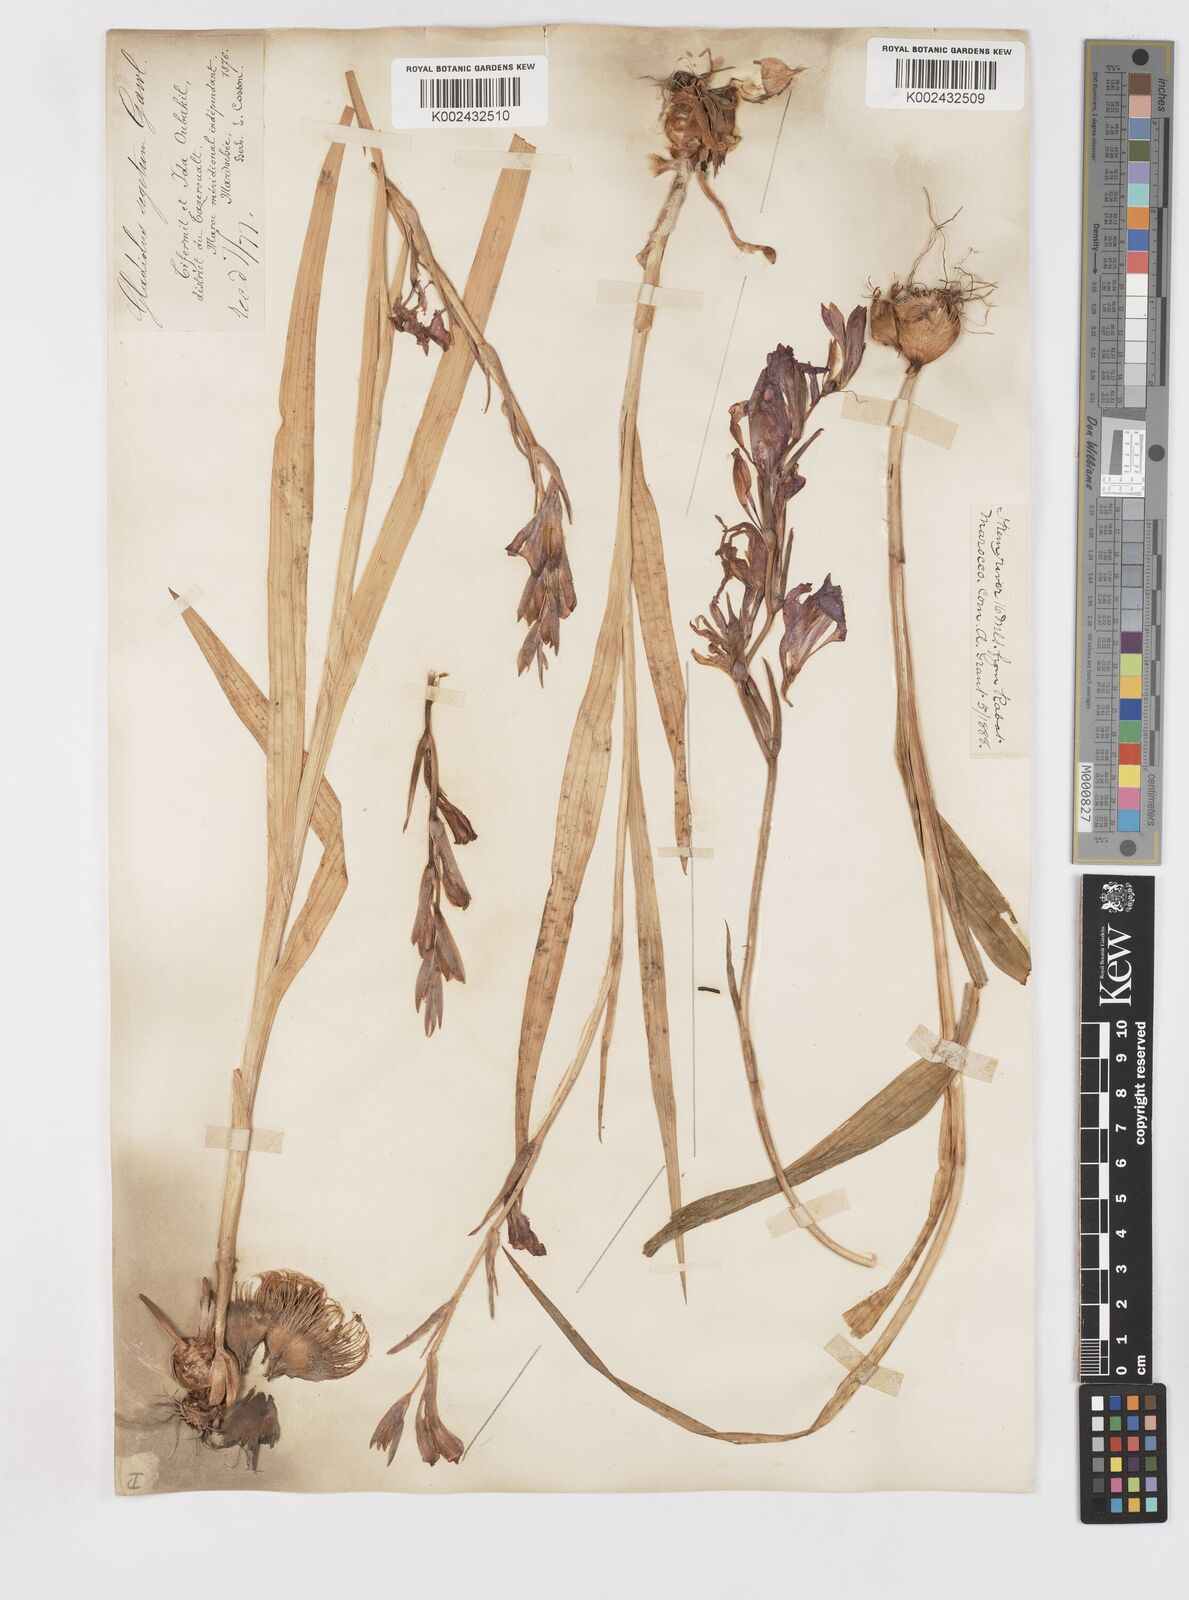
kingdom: Plantae
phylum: Tracheophyta
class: Liliopsida
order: Asparagales
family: Iridaceae
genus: Gladiolus
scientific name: Gladiolus italicus
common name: Field gladiolus
